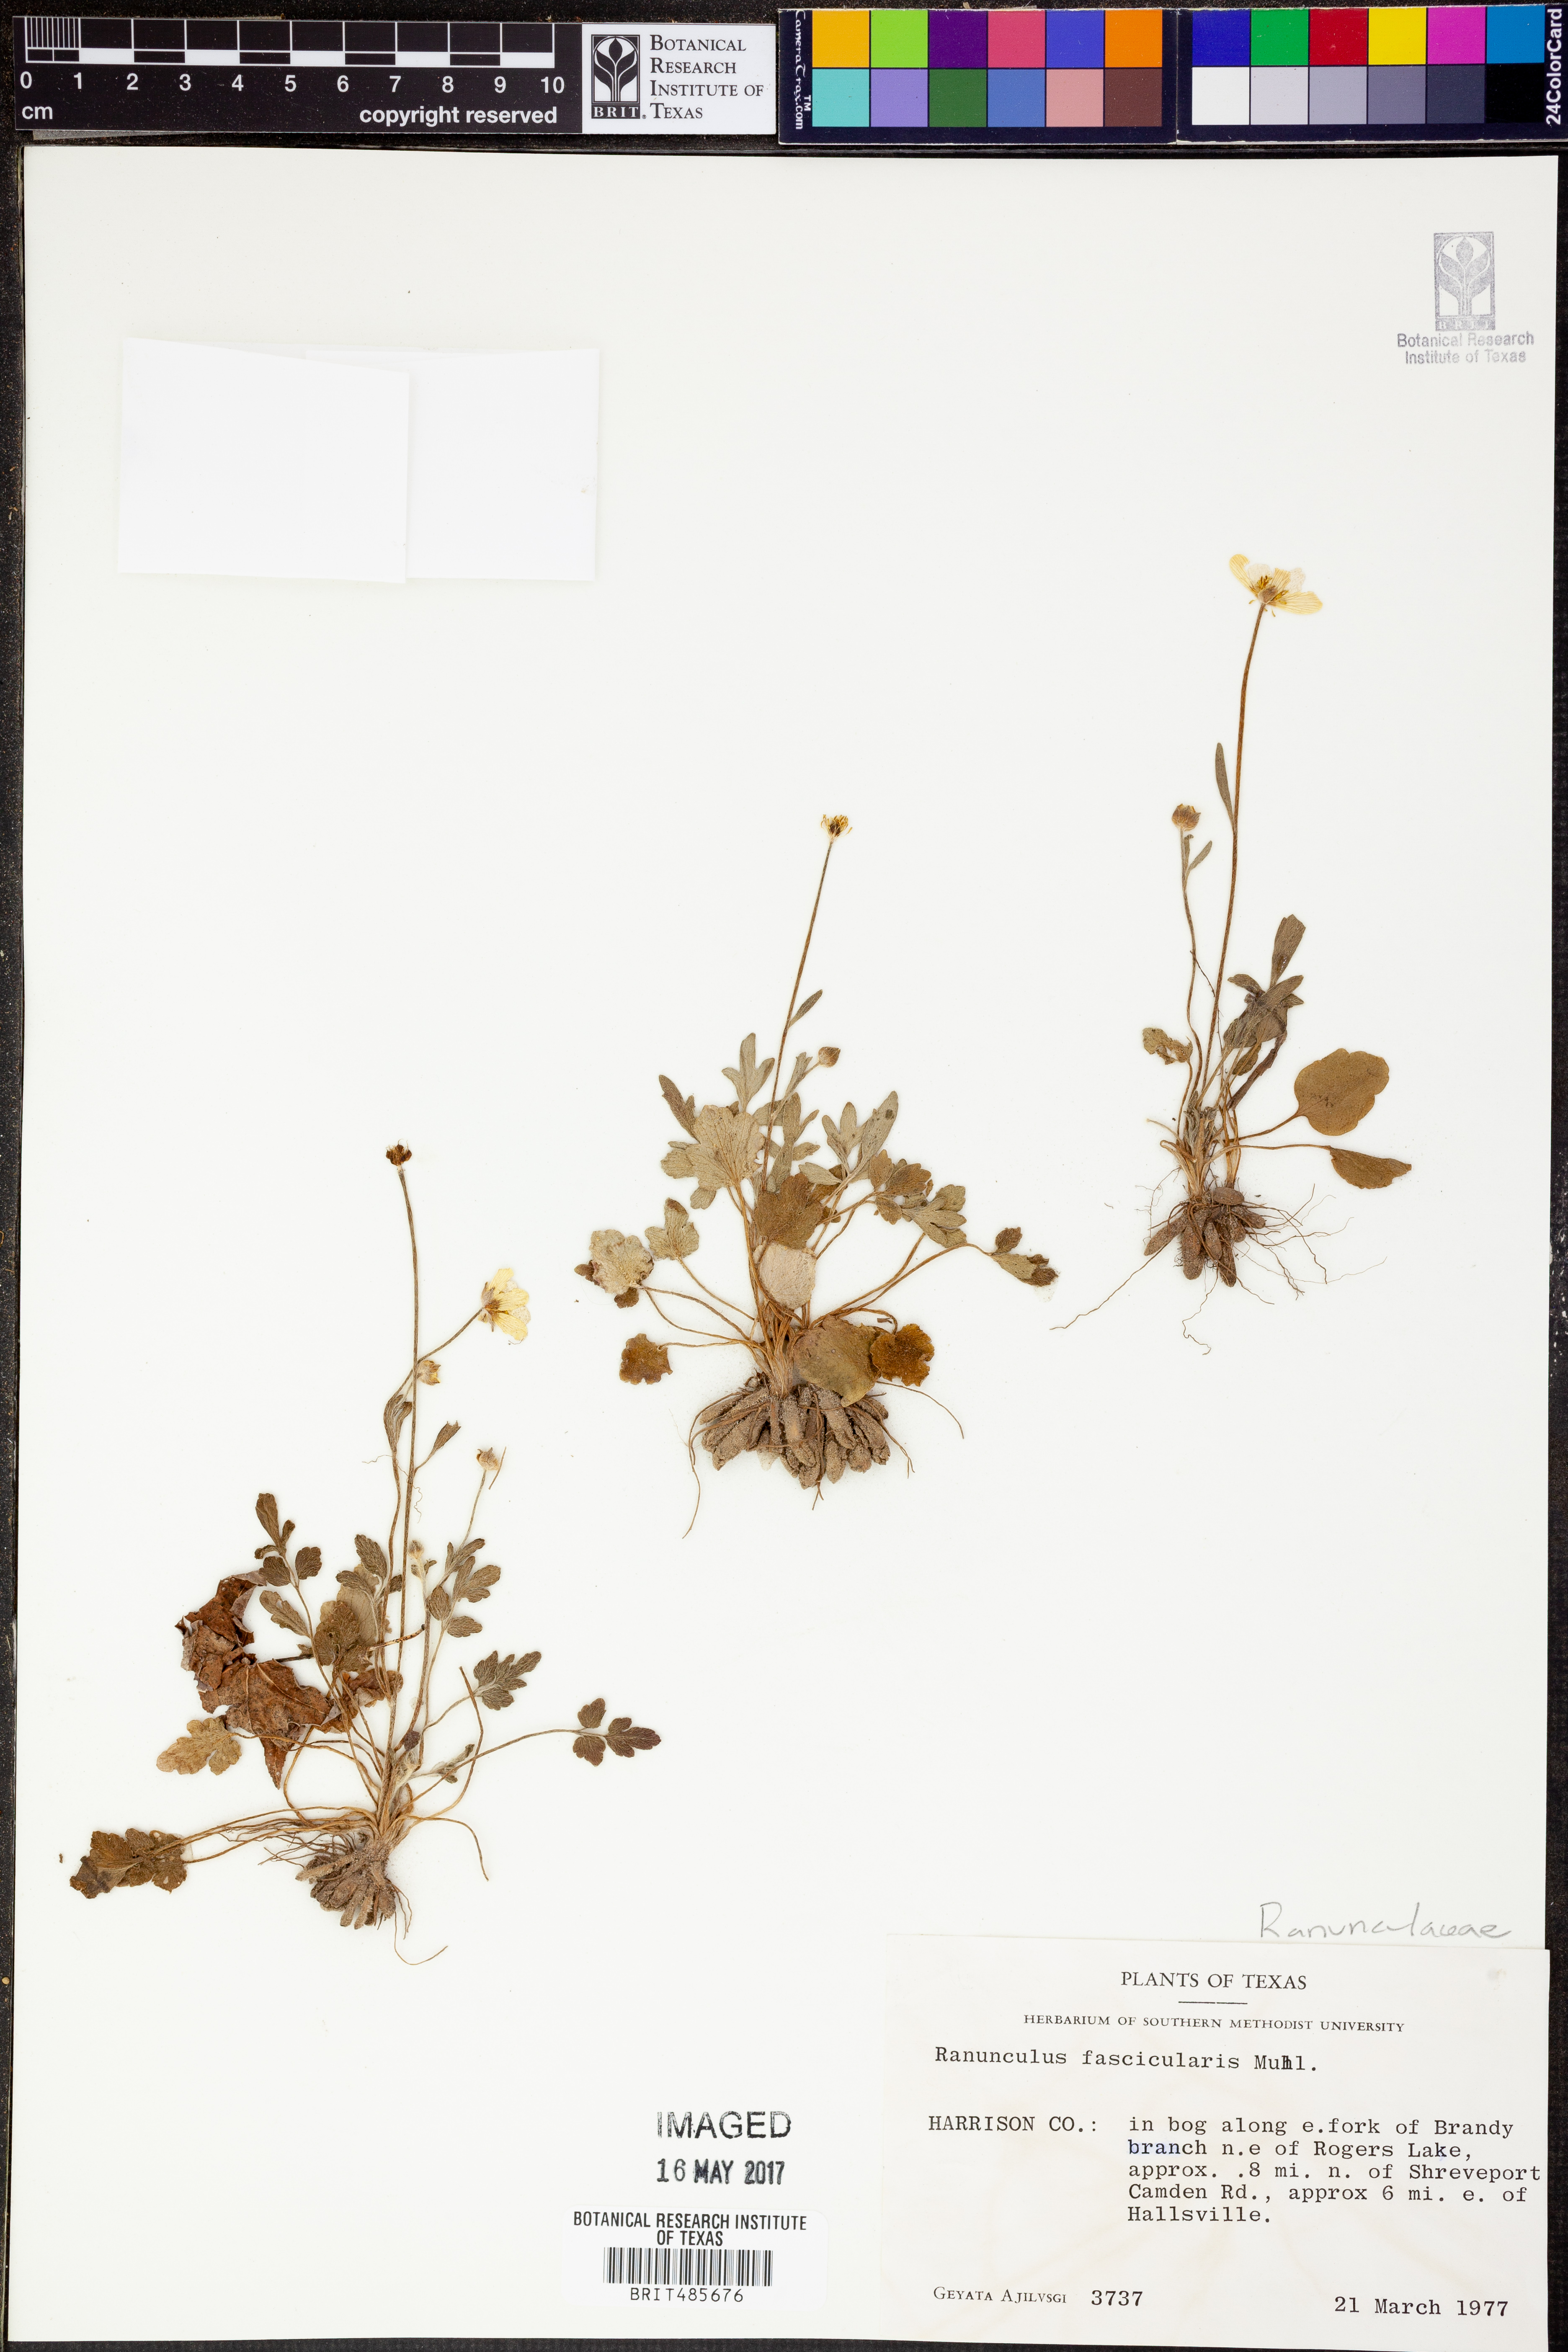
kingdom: Plantae
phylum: Tracheophyta
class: Magnoliopsida
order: Ranunculales
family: Ranunculaceae
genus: Ranunculus
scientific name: Ranunculus fascicularis
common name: Early buttercup
